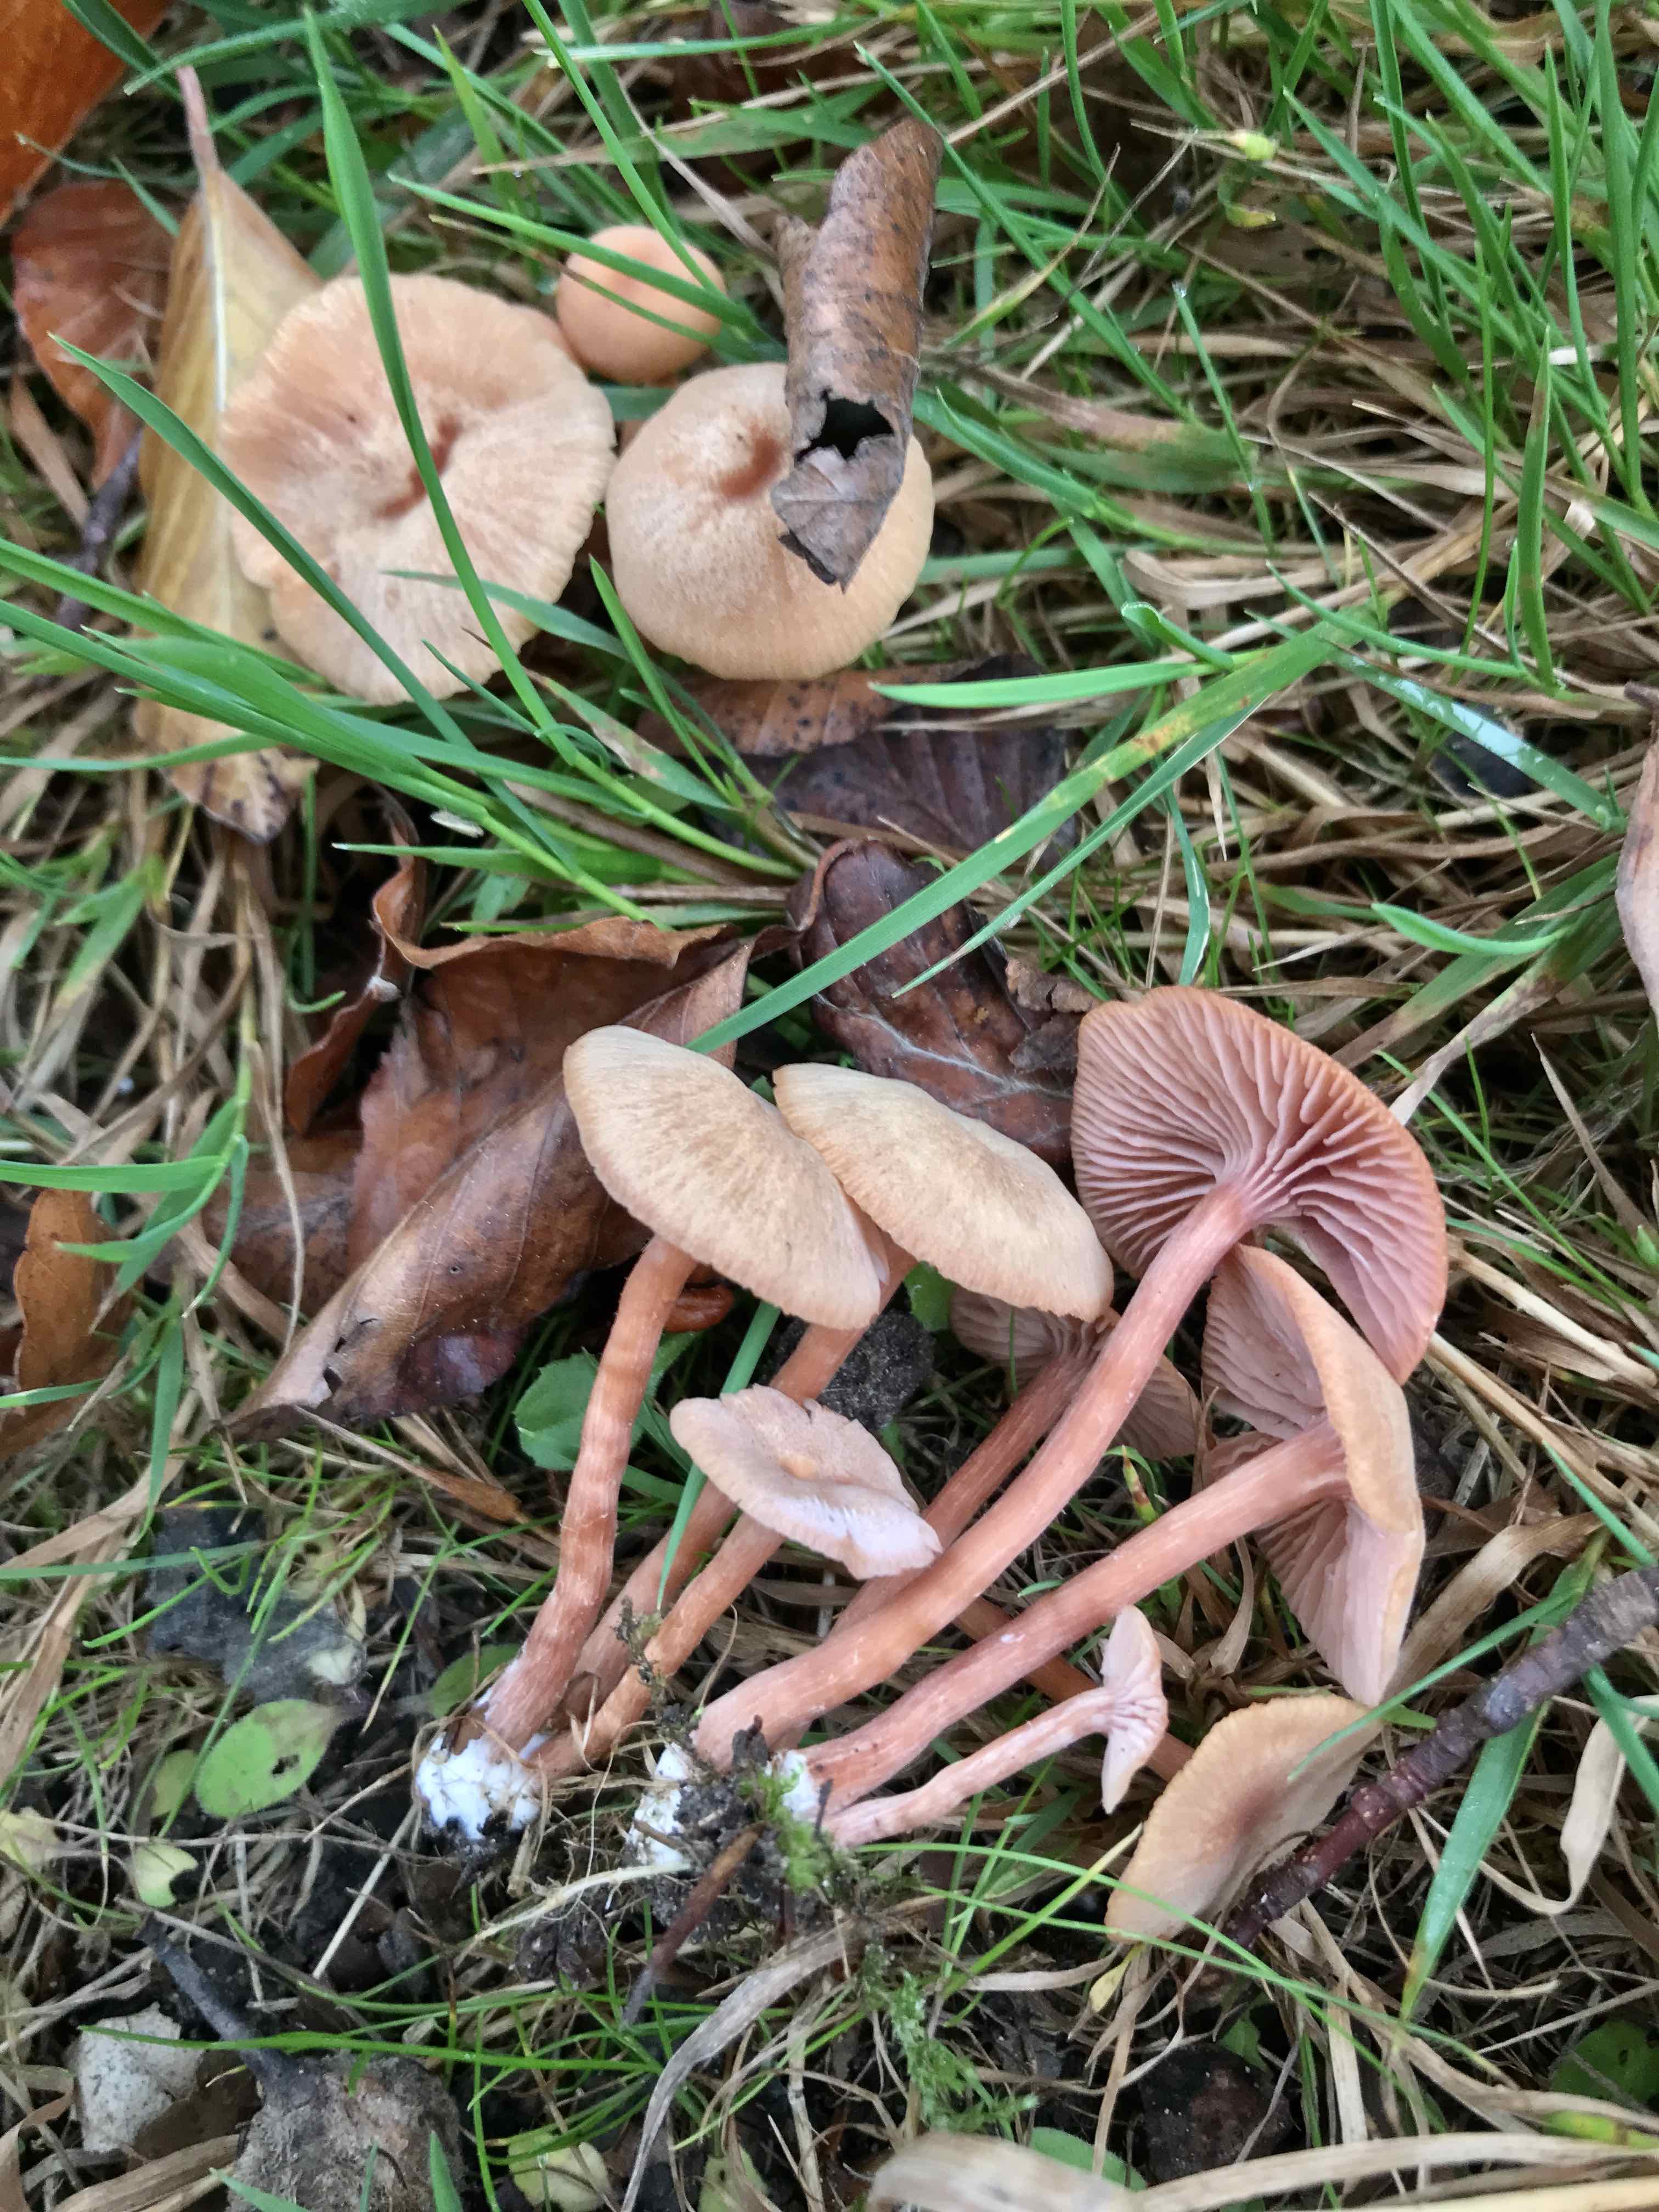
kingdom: Fungi
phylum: Basidiomycota
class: Agaricomycetes
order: Agaricales
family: Hydnangiaceae
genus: Laccaria
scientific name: Laccaria laccata
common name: rød ametysthat
